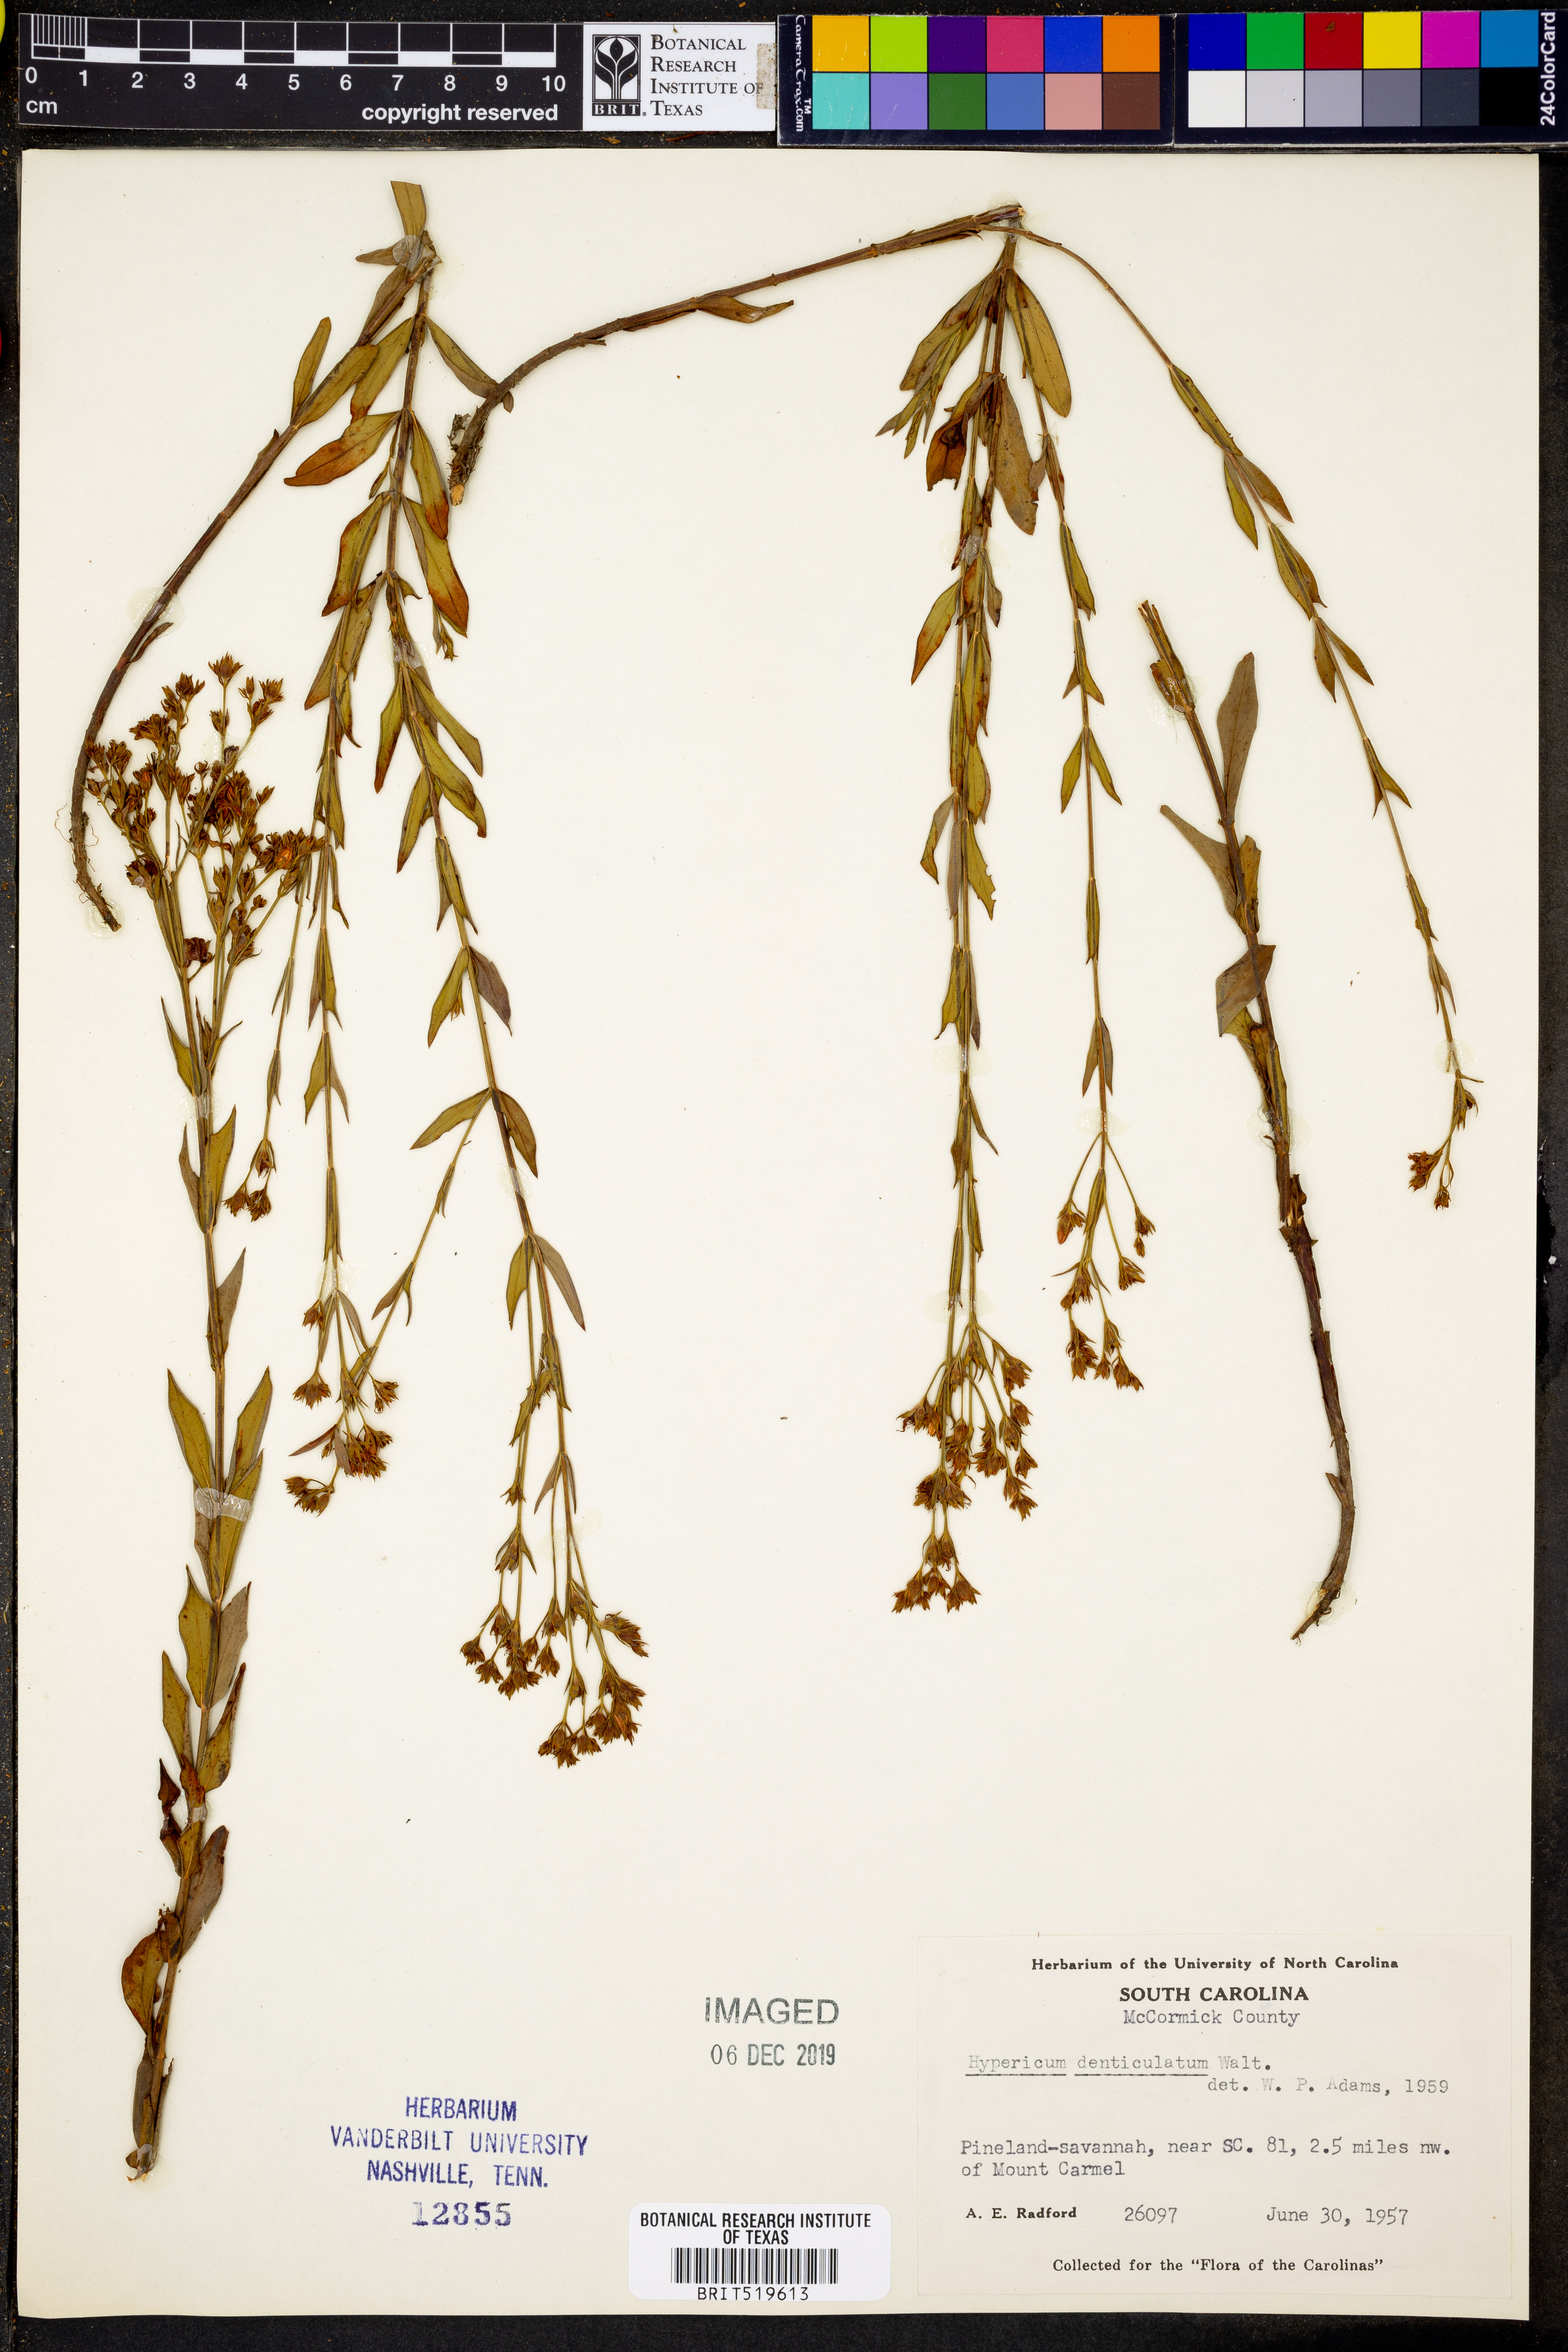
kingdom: Plantae
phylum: Tracheophyta
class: Magnoliopsida
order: Malpighiales
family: Hypericaceae
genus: Hypericum
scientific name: Hypericum denticulatum
